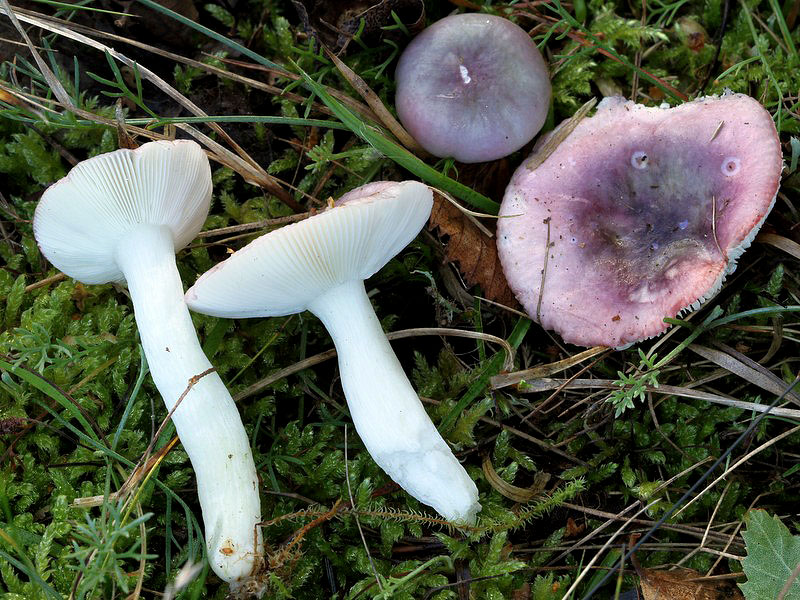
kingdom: Fungi
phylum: Basidiomycota
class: Agaricomycetes
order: Russulales
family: Russulaceae
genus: Russula
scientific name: Russula atrorubens
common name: sortrød skørhat
